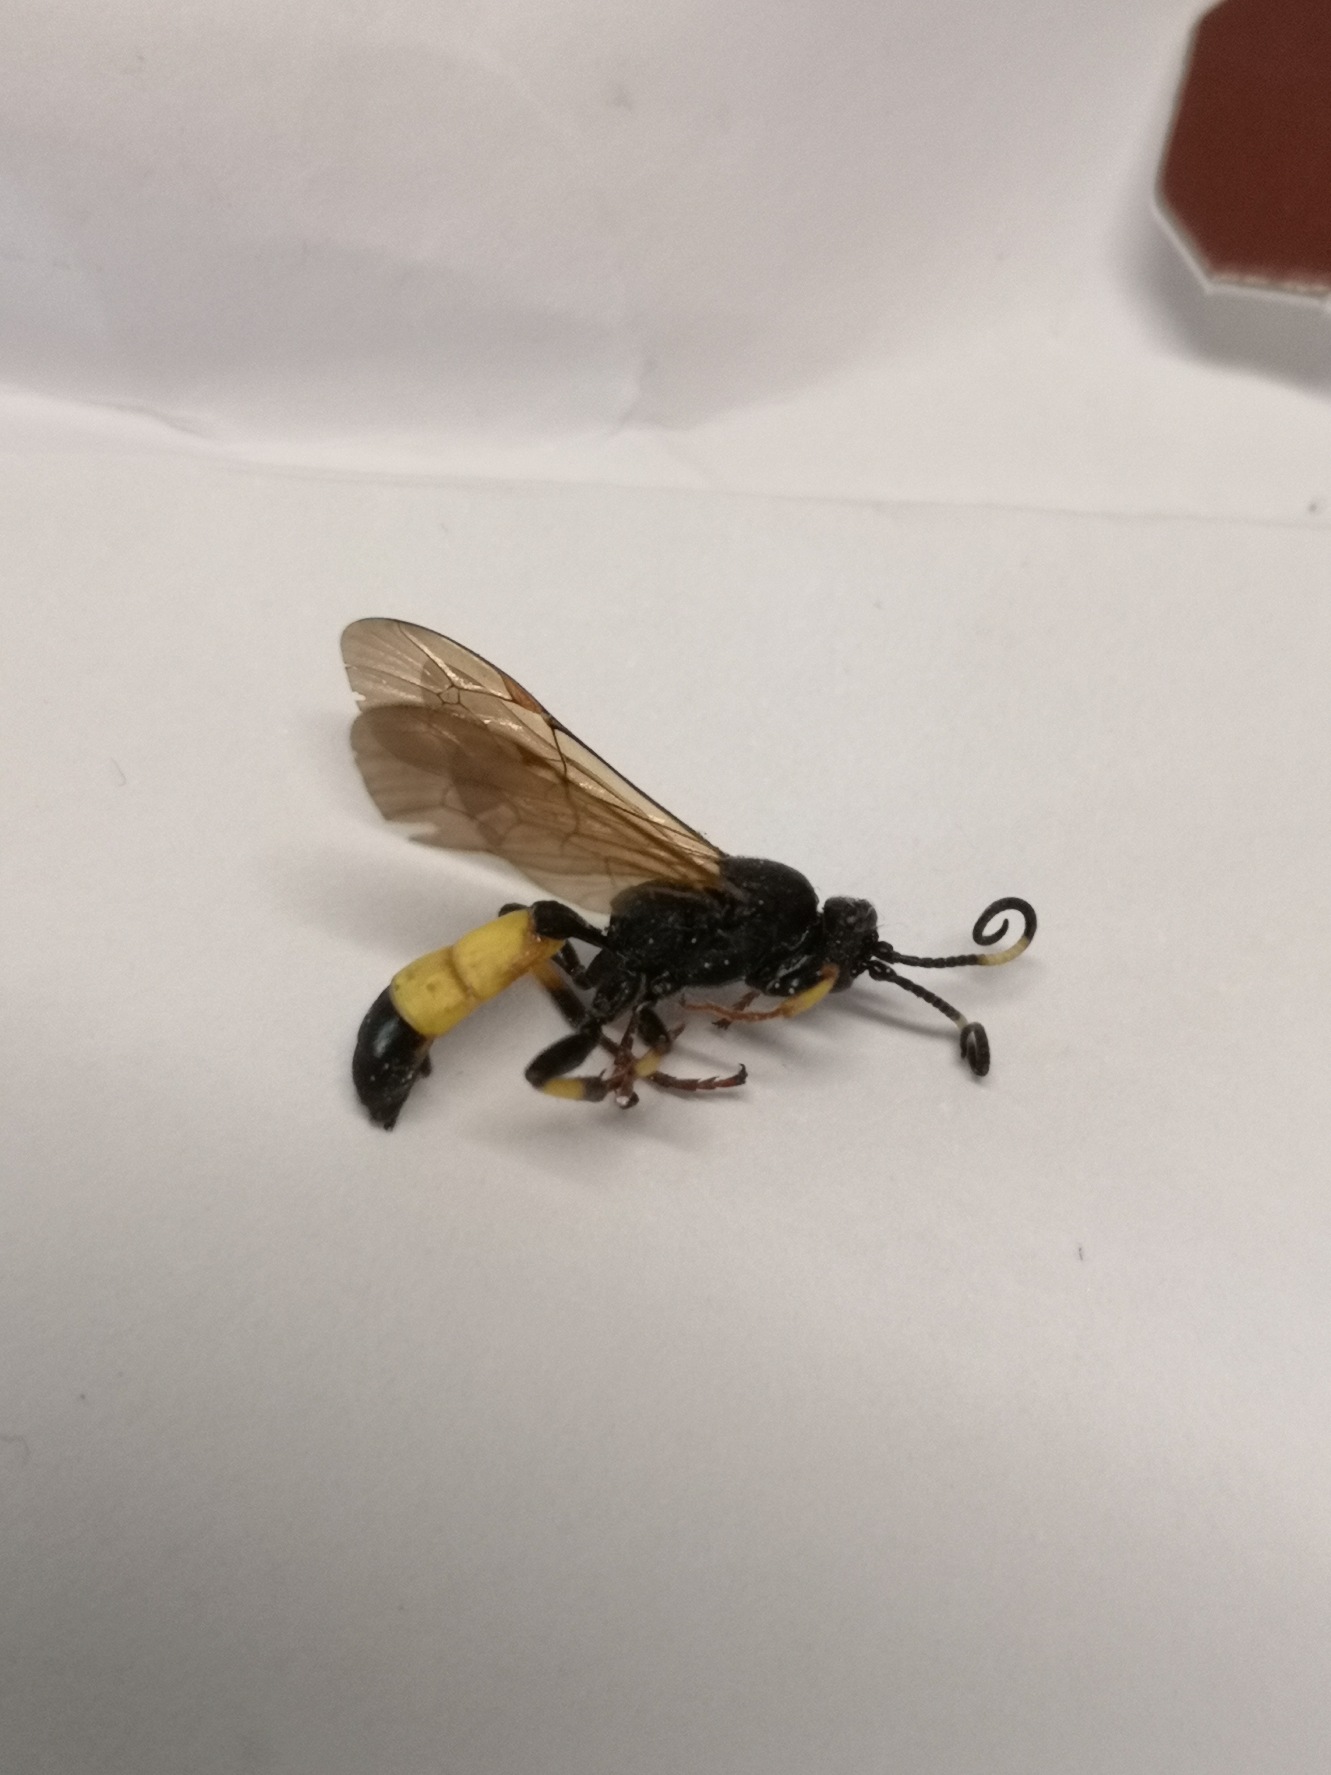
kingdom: Animalia
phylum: Arthropoda
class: Insecta
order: Hymenoptera
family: Ichneumonidae
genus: Ichneumon
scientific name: Ichneumon stramentor
